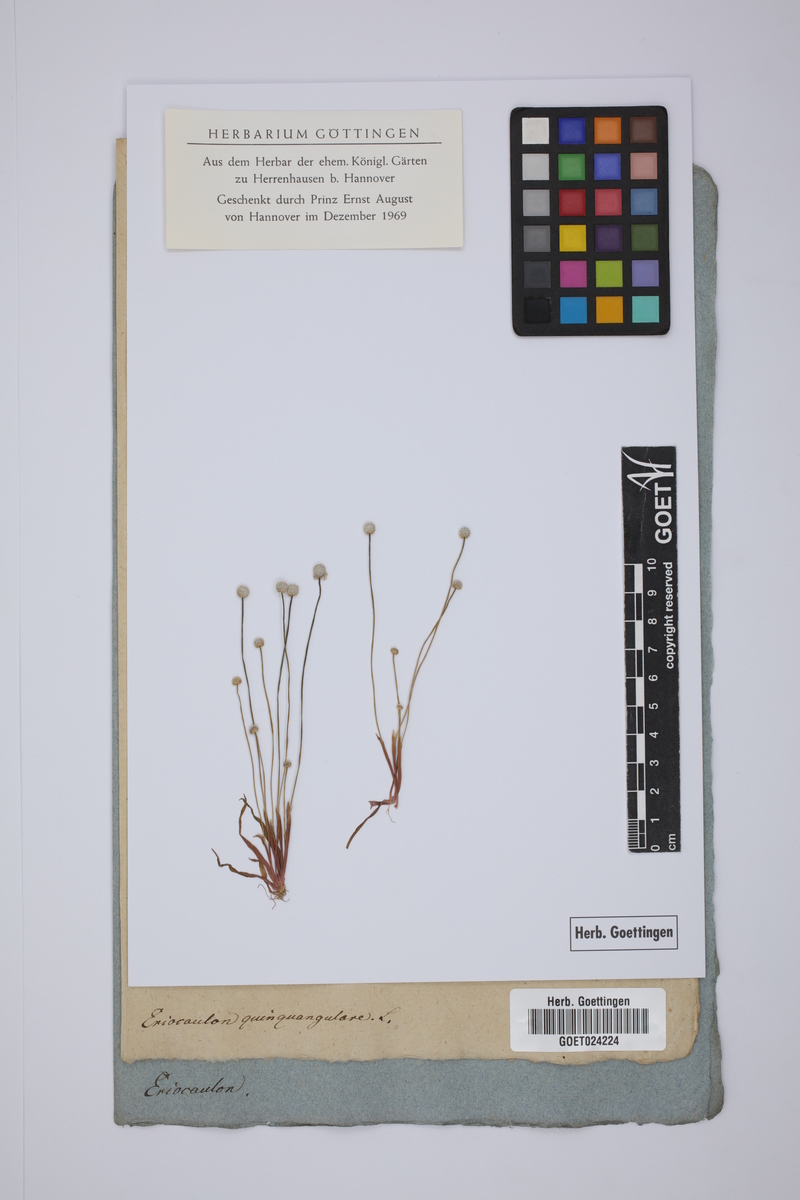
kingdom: Plantae
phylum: Tracheophyta
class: Liliopsida
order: Poales
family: Eriocaulaceae
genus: Eriocaulon
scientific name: Eriocaulon quinquangulare
